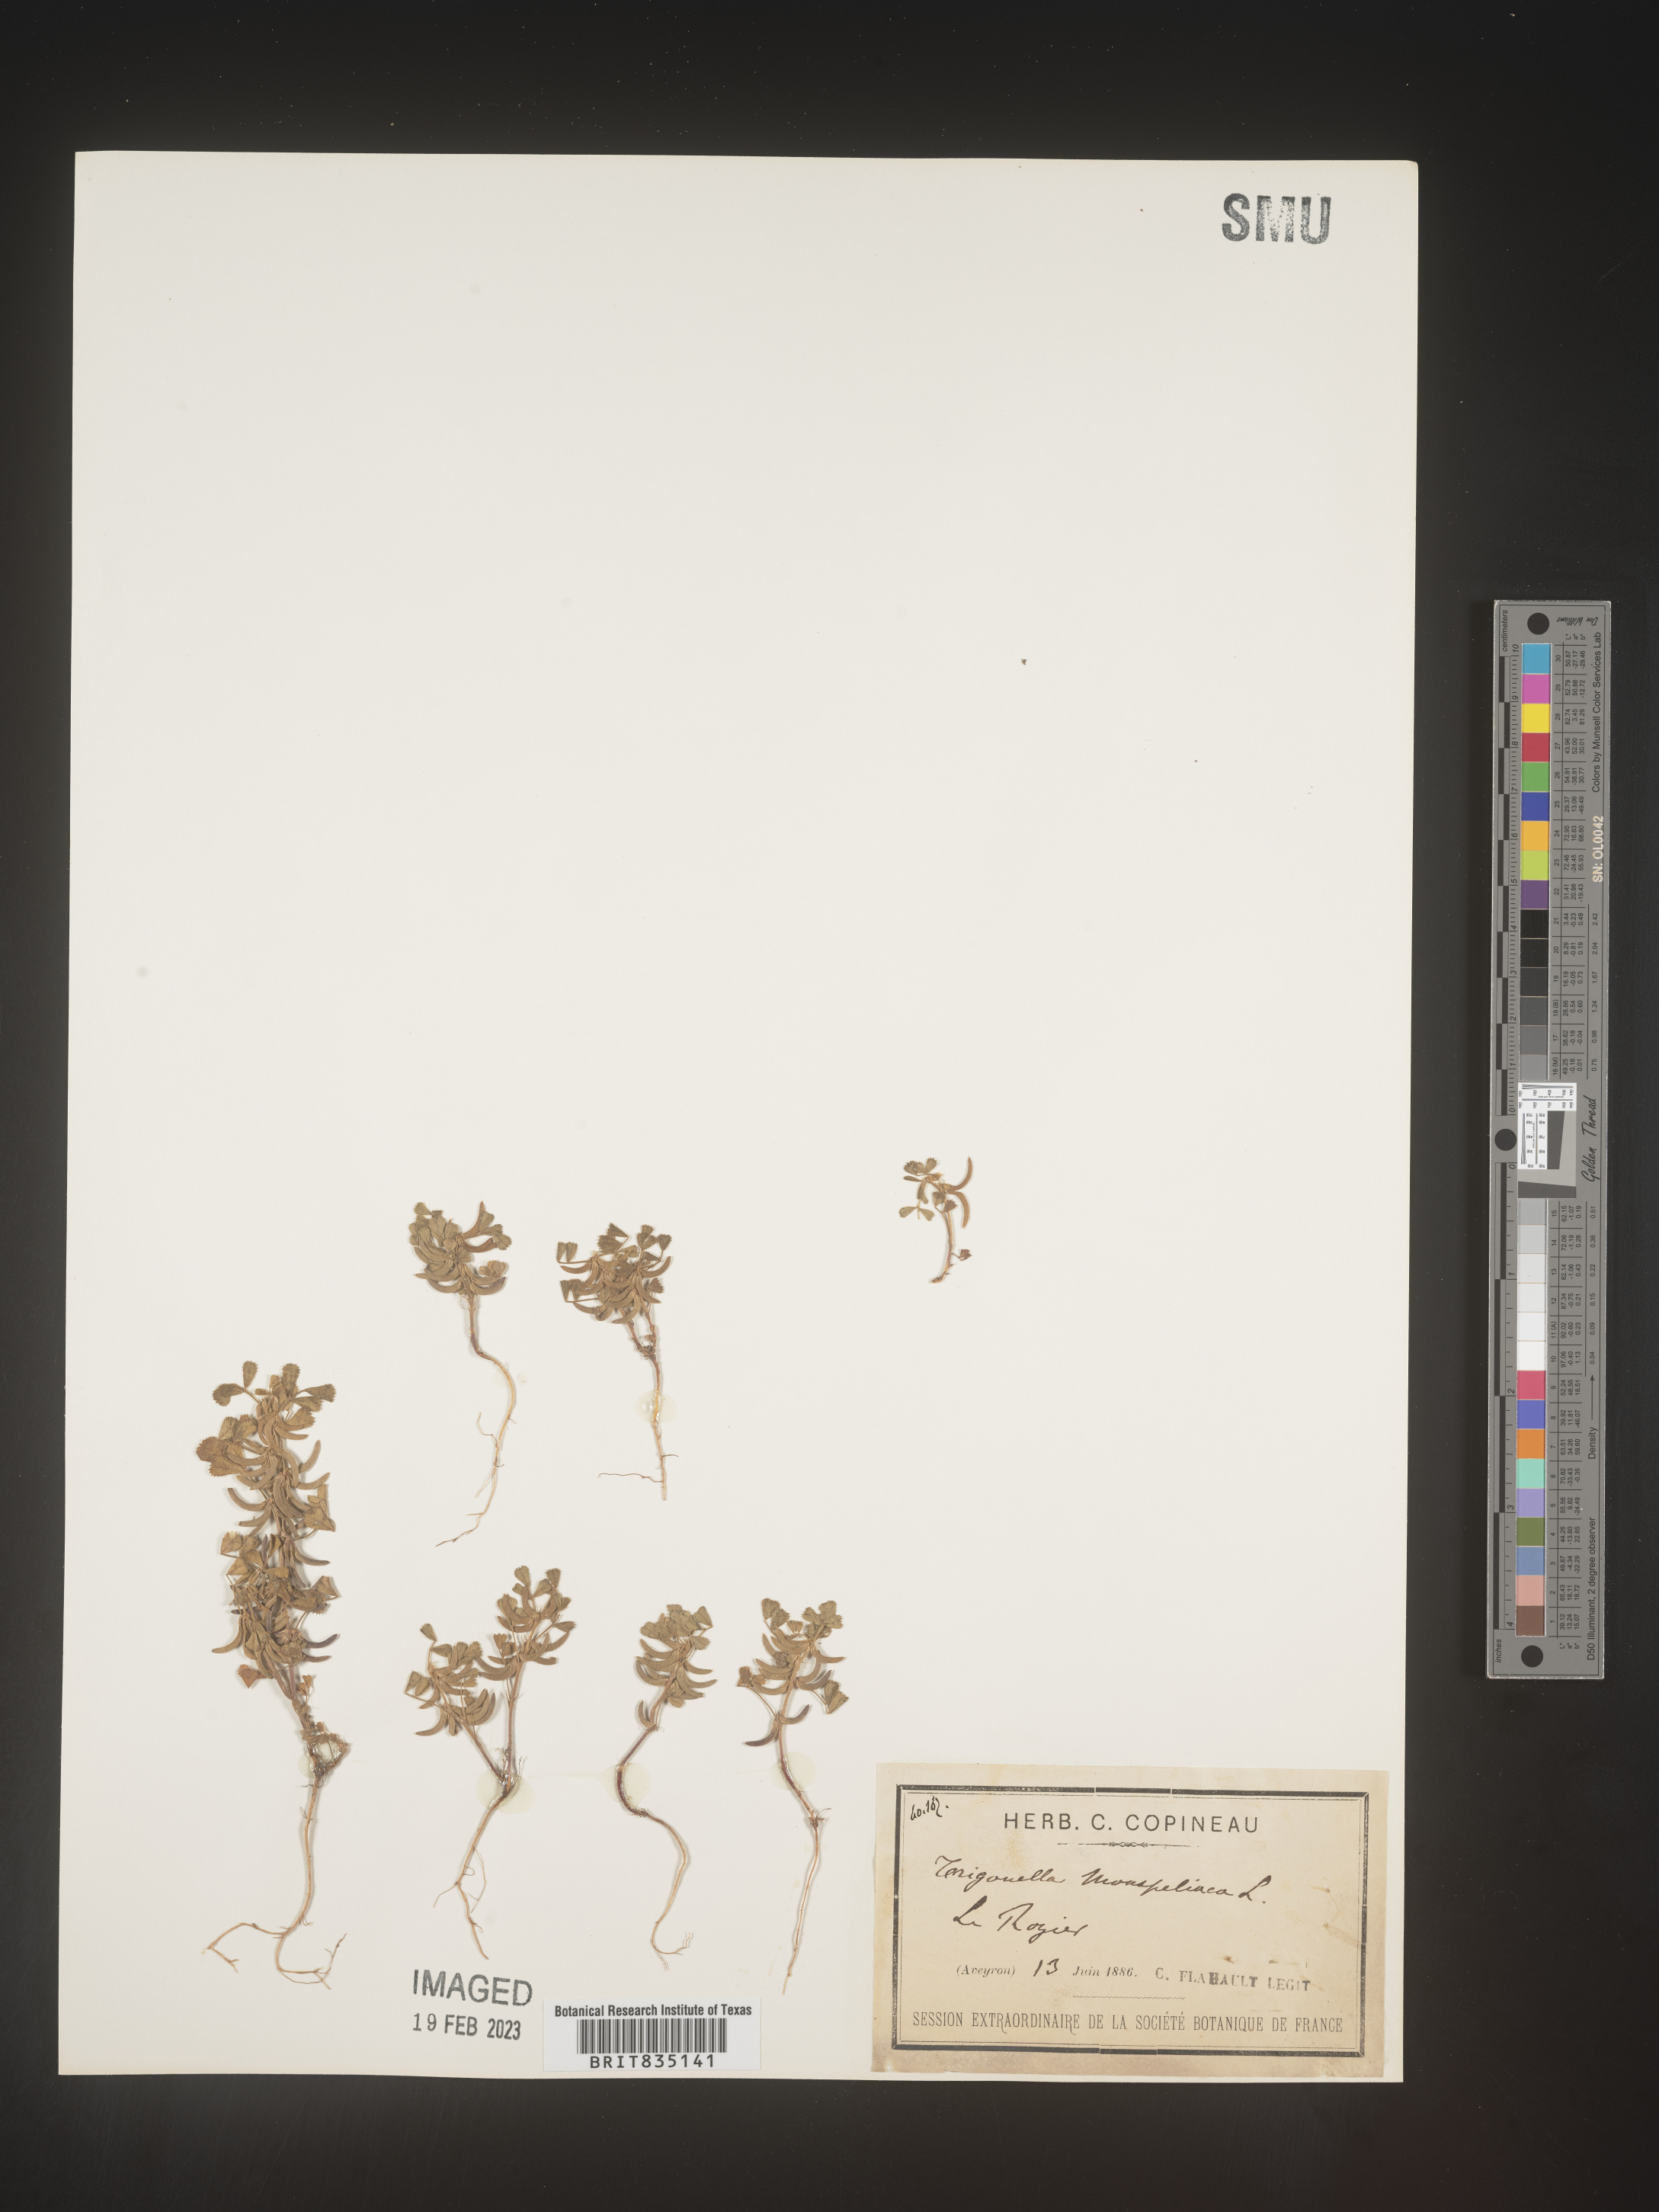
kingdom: Plantae
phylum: Tracheophyta
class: Magnoliopsida
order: Fabales
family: Fabaceae
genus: Trigonella
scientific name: Trigonella
